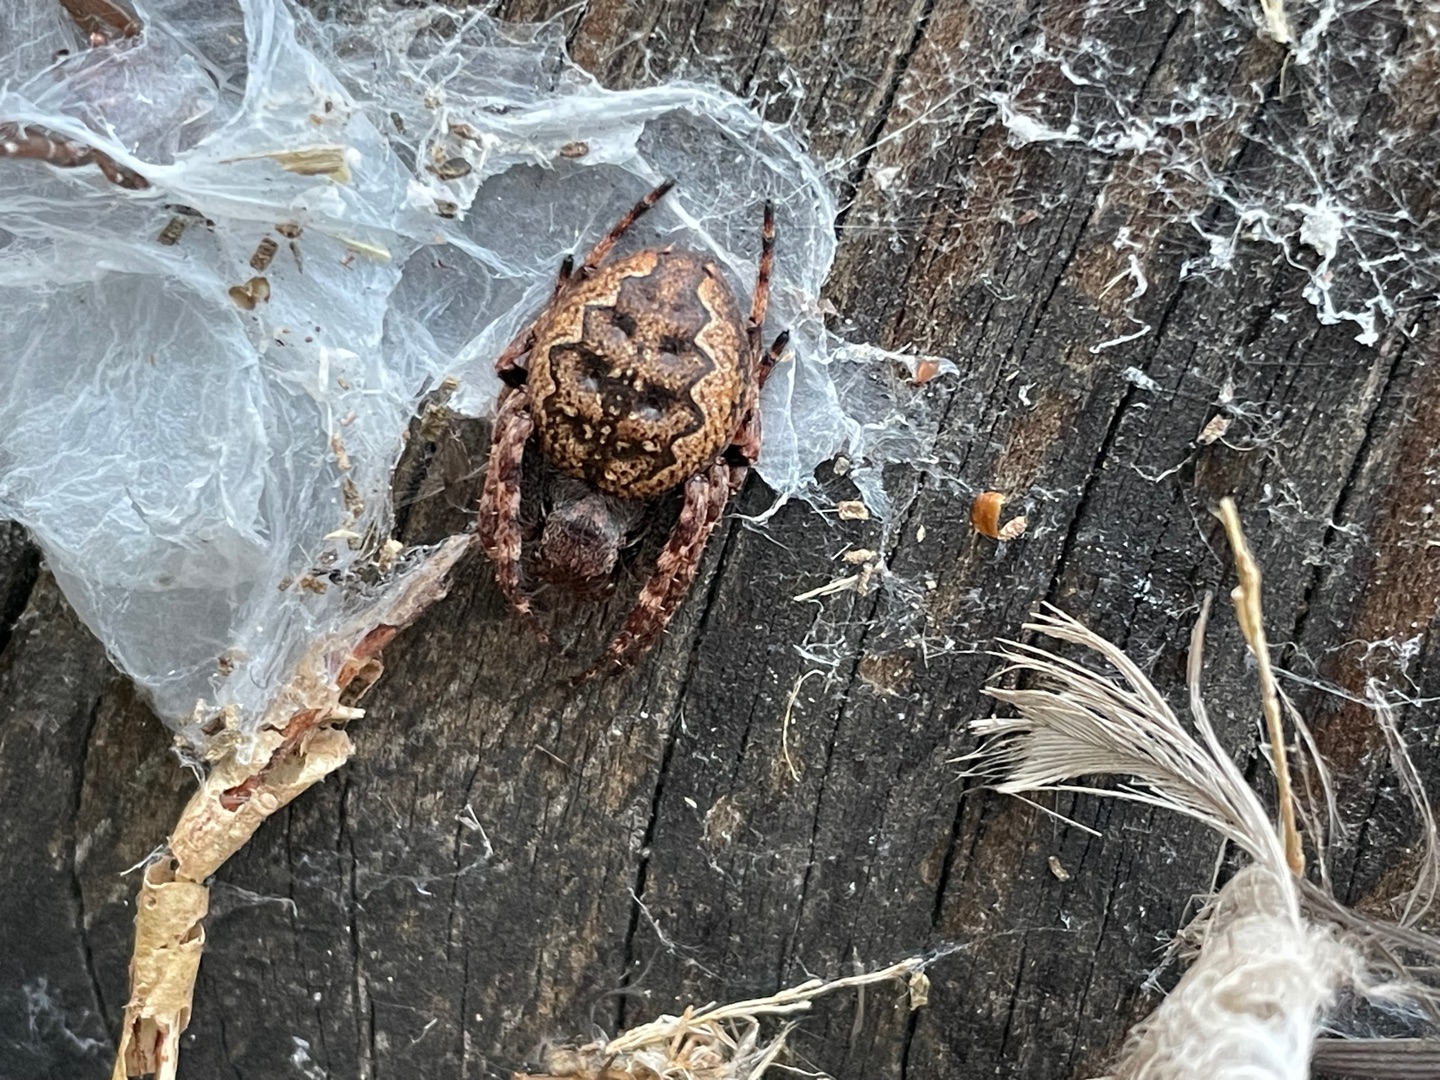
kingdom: Animalia
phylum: Arthropoda
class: Arachnida
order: Araneae
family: Araneidae
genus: Nuctenea
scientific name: Nuctenea umbratica
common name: Flad hjulspinder
